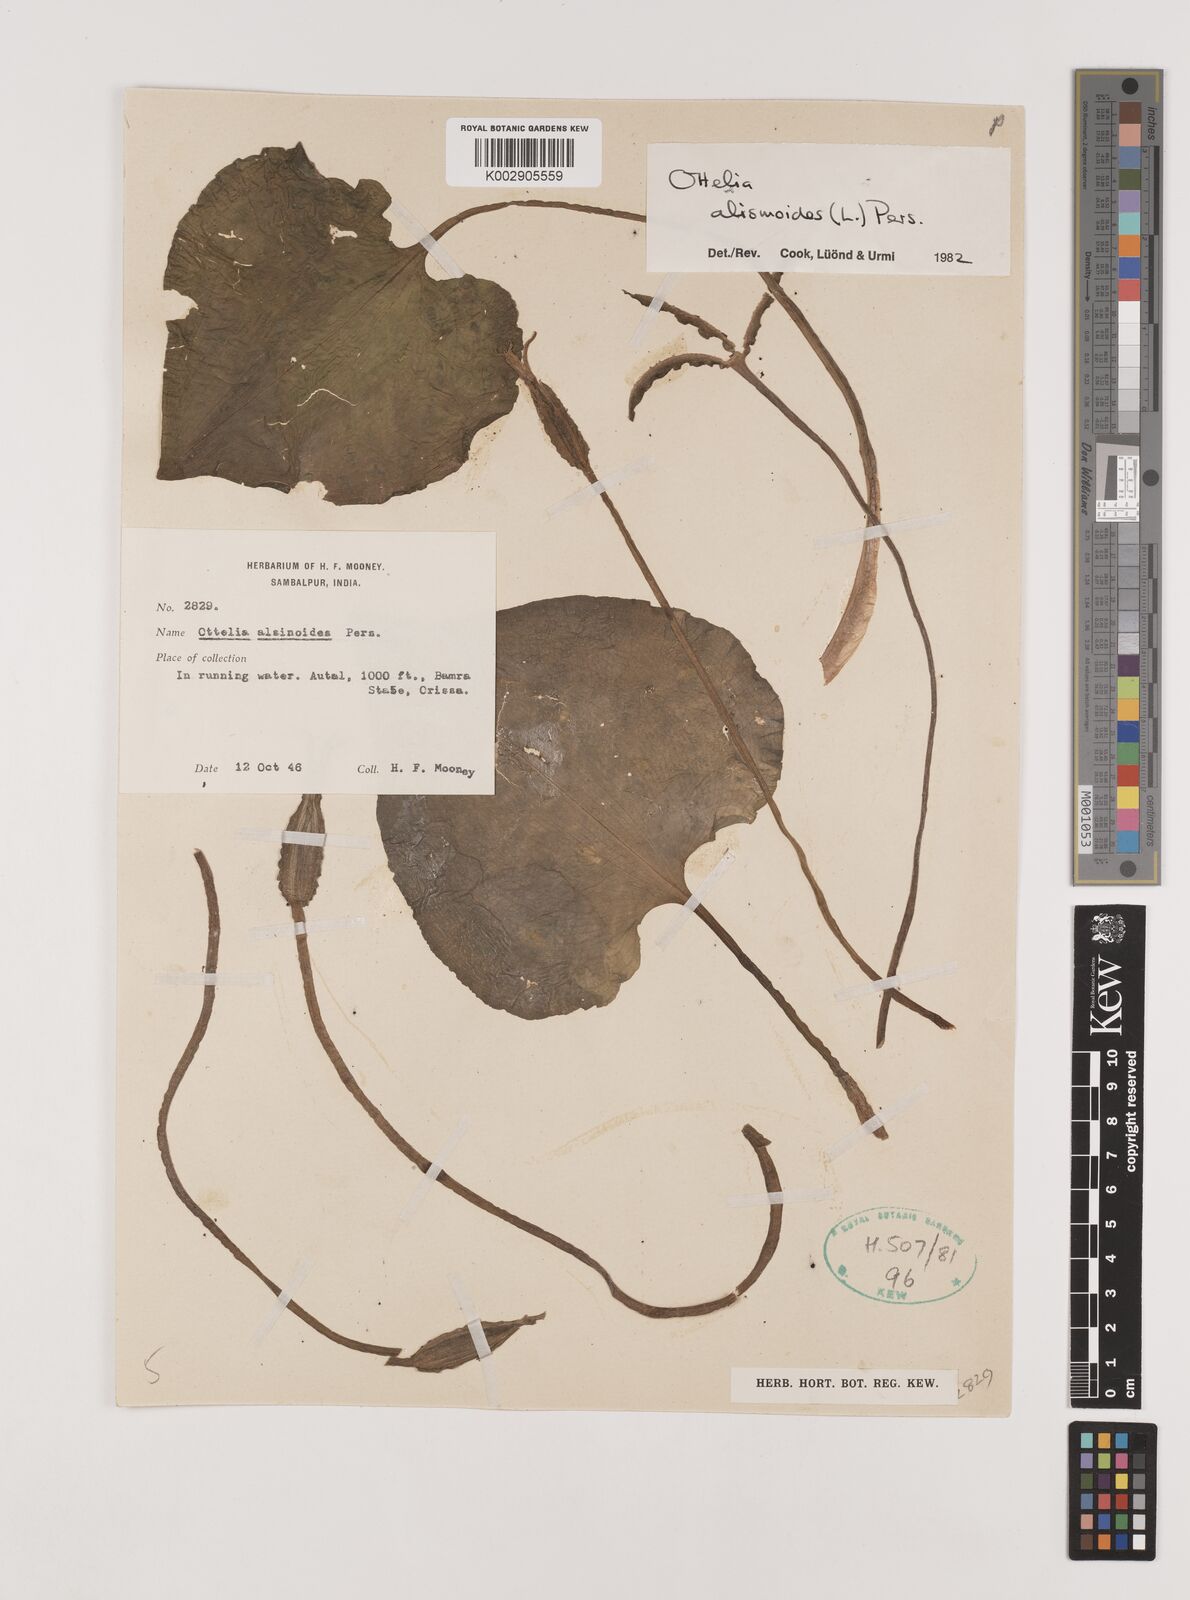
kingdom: Plantae
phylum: Tracheophyta
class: Liliopsida
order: Alismatales
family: Hydrocharitaceae
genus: Ottelia
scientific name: Ottelia alismoides
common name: Duck-lettuce
